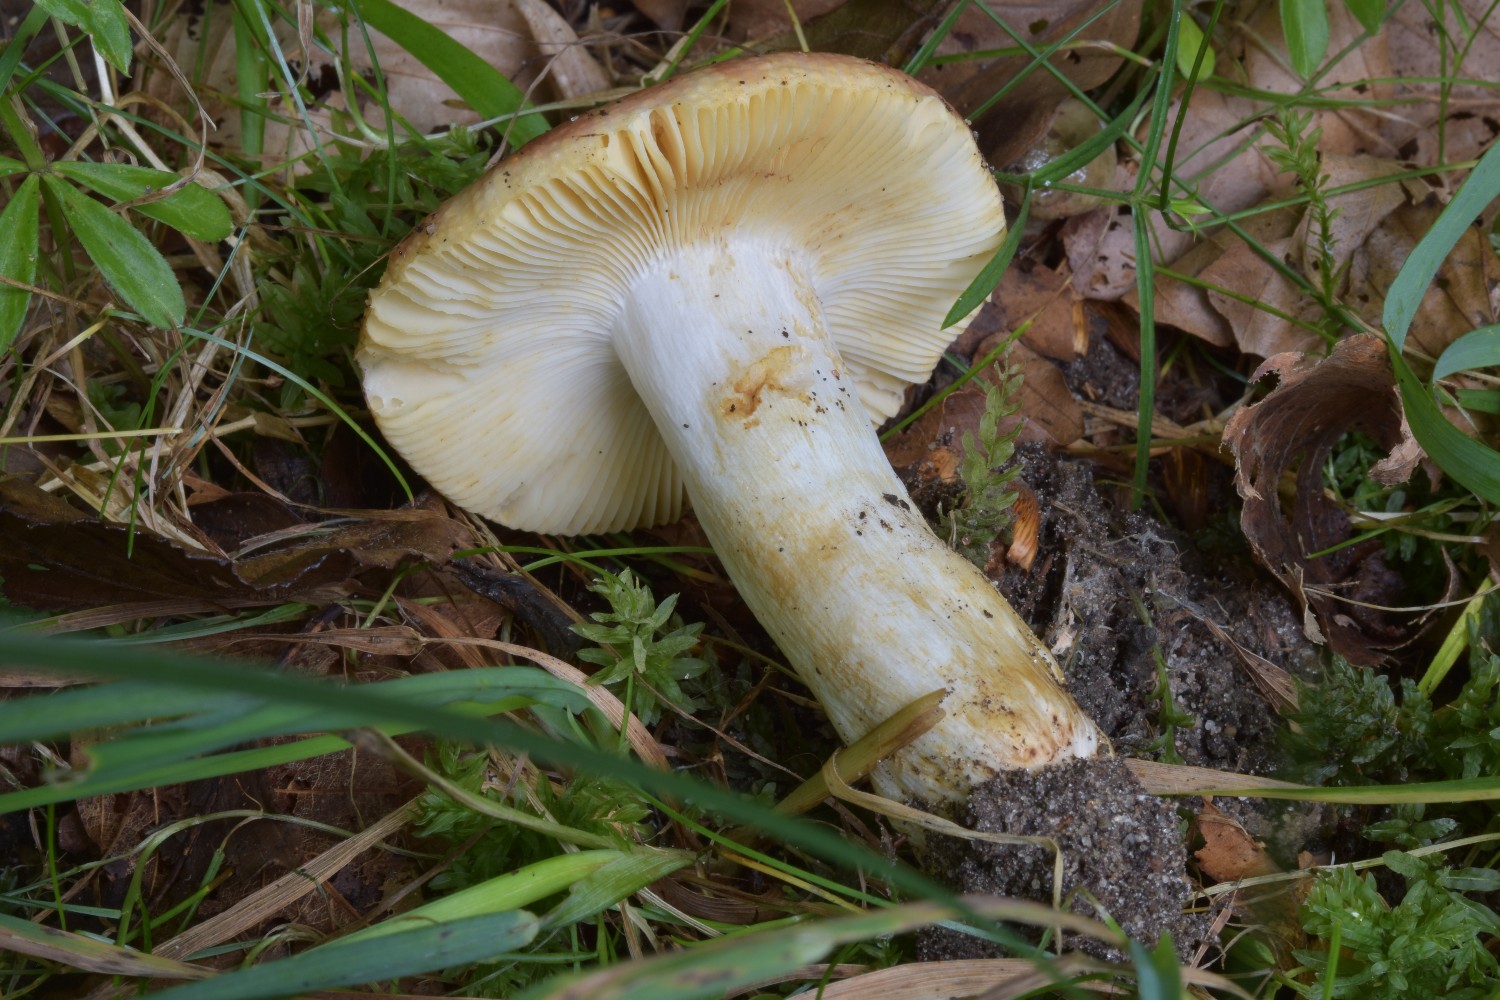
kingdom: Fungi
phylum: Basidiomycota
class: Agaricomycetes
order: Russulales
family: Russulaceae
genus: Russula
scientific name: Russula maculata
